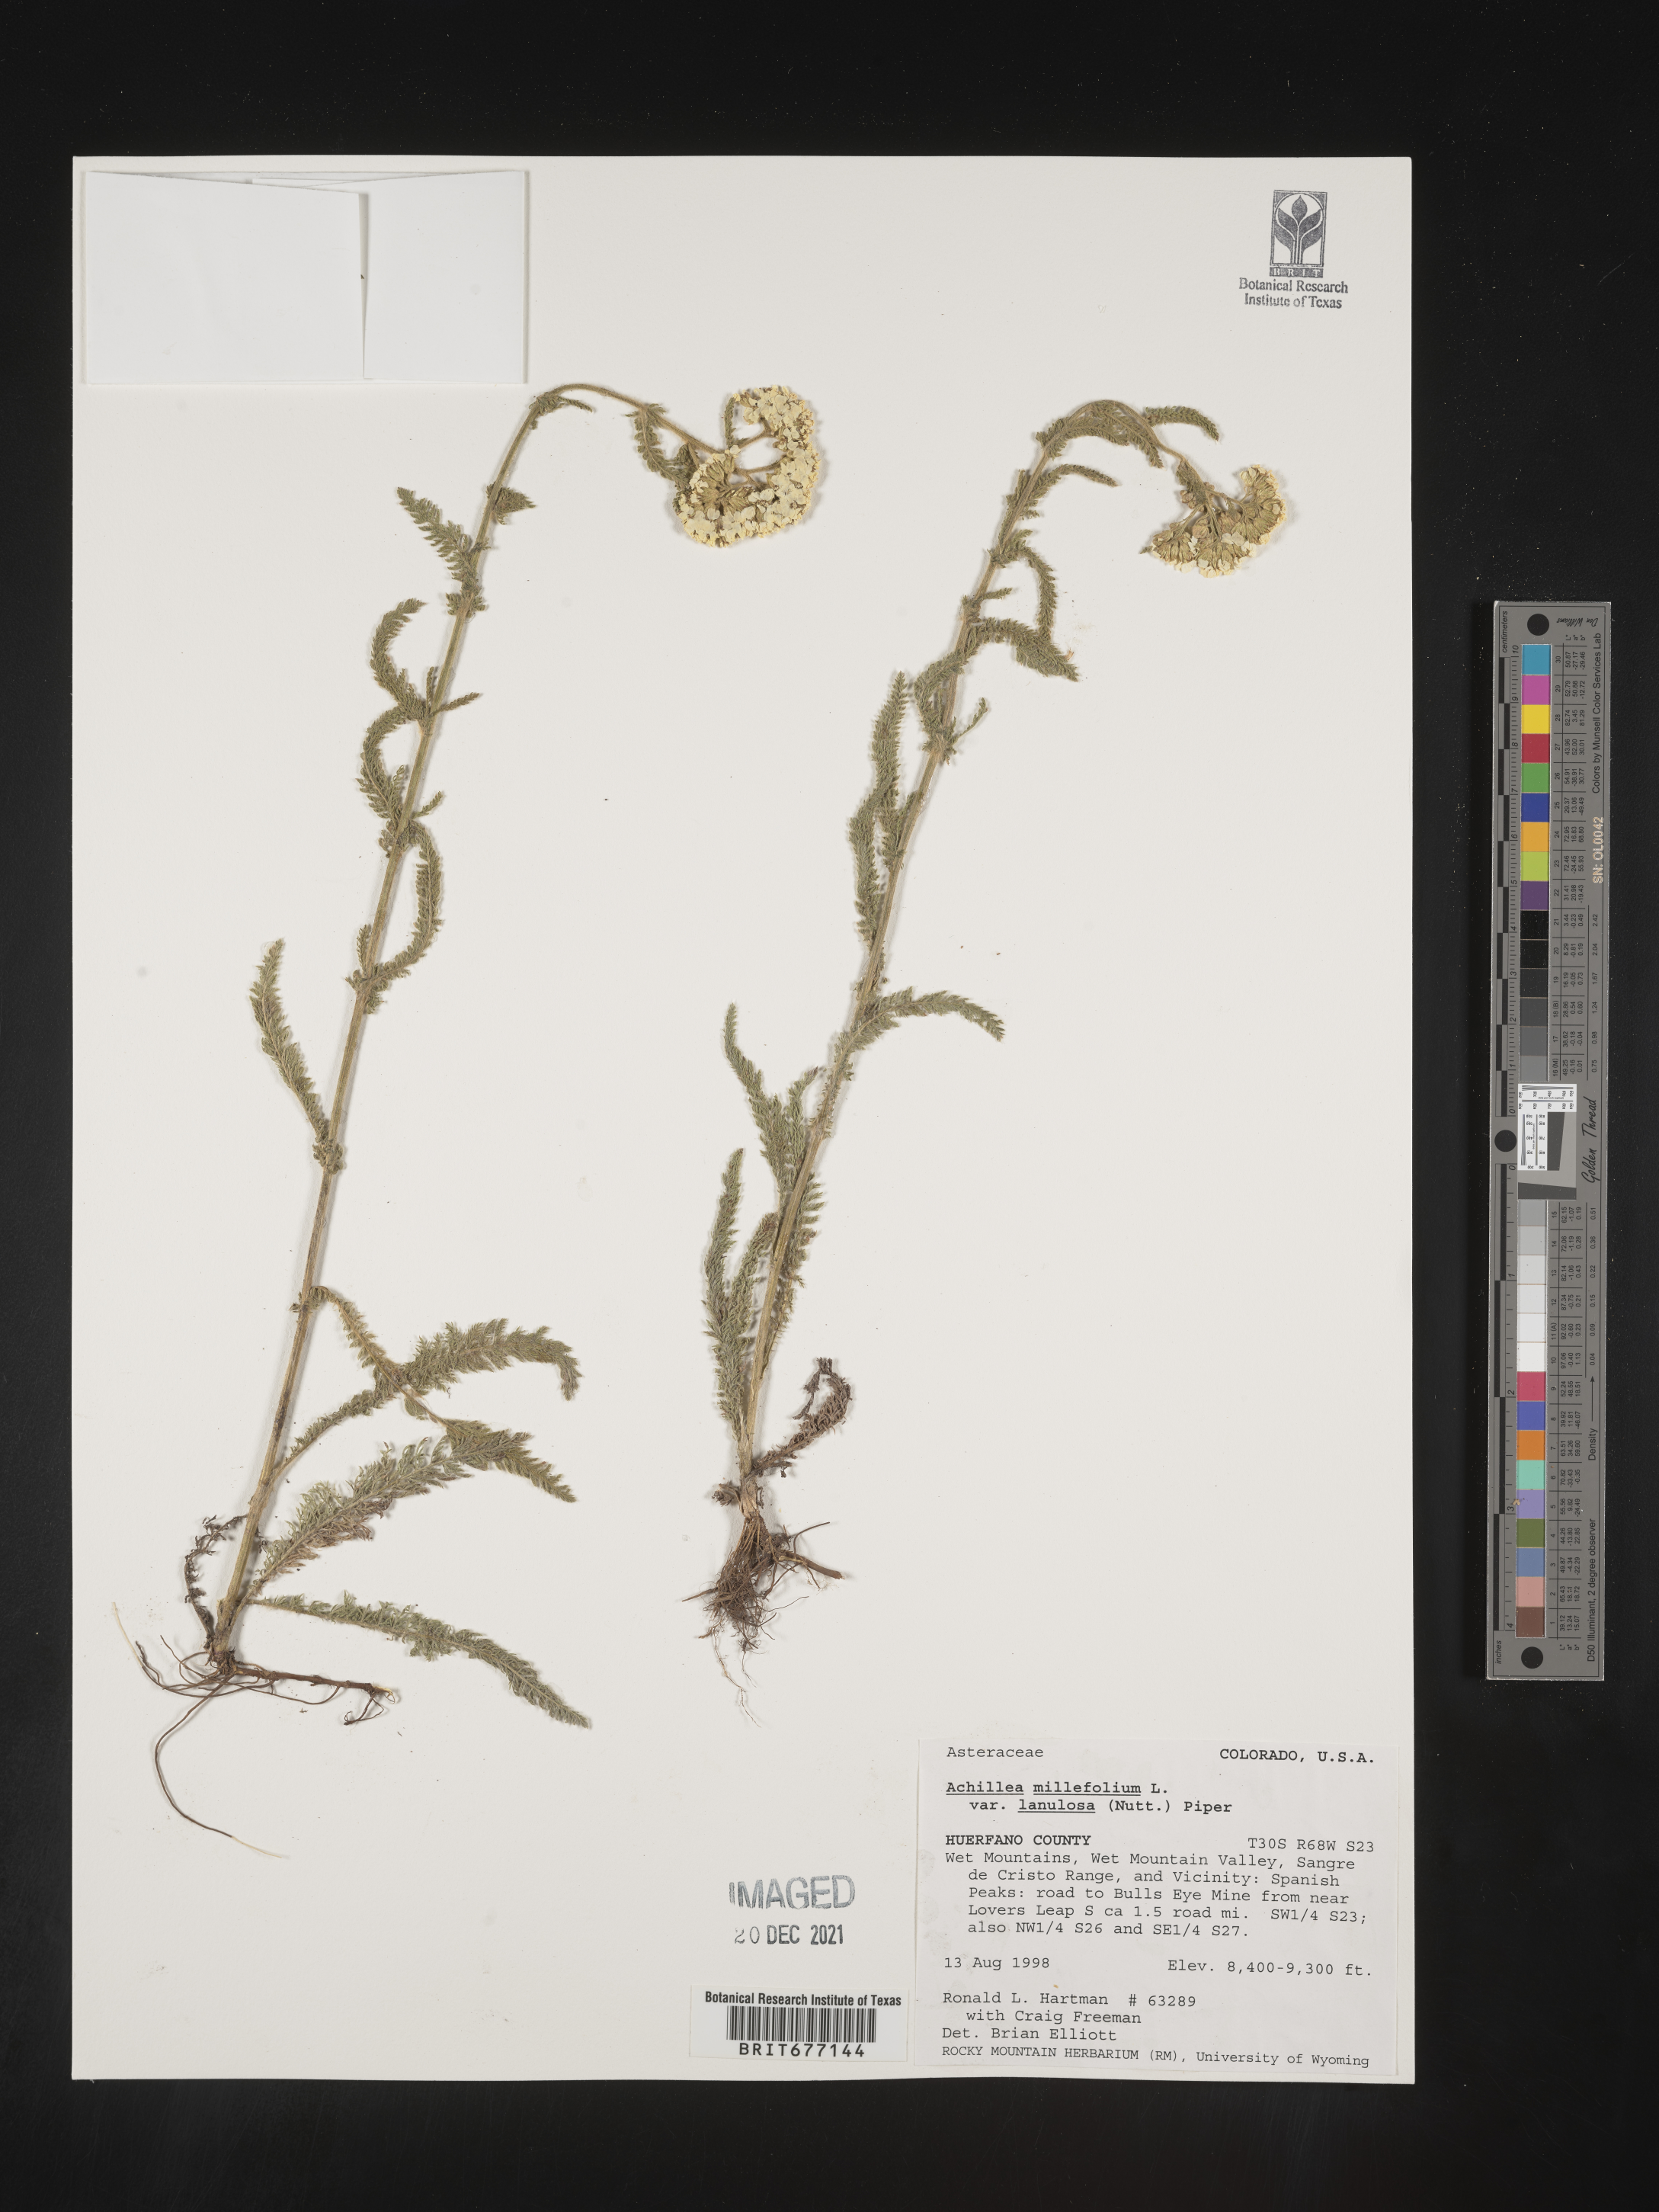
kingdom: Plantae
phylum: Tracheophyta
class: Magnoliopsida
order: Asterales
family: Asteraceae
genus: Achillea
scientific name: Achillea millefolium
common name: Yarrow
